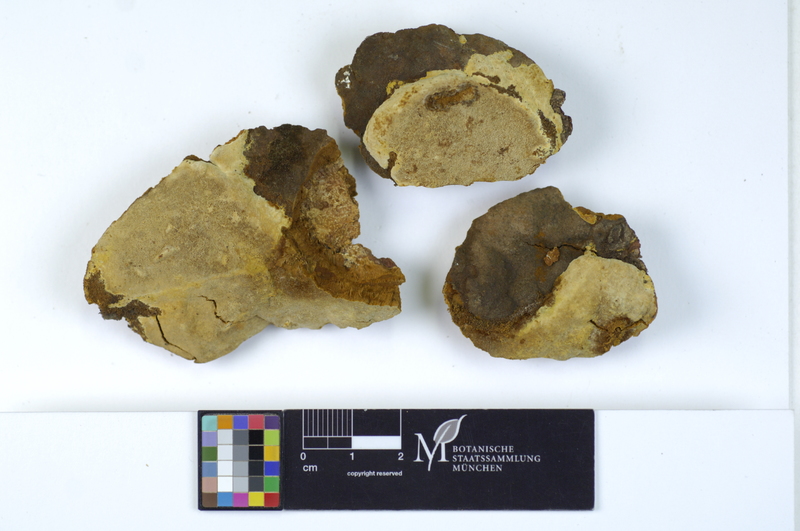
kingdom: Fungi
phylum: Basidiomycota
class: Agaricomycetes
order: Hymenochaetales
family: Hymenochaetaceae
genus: Fomitiporia
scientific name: Fomitiporia robusta
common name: Robust bracket
